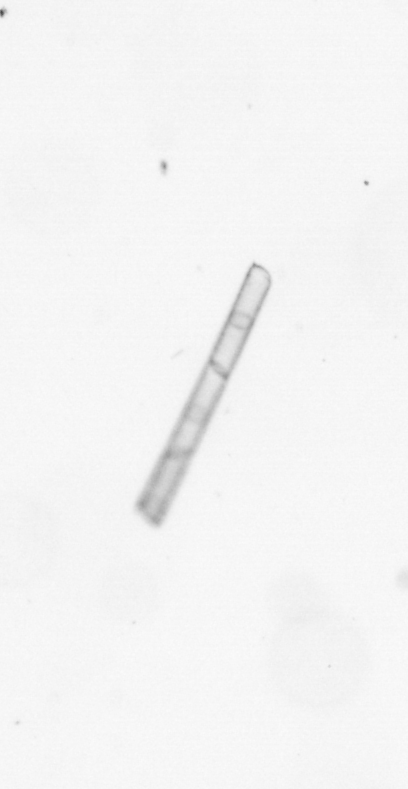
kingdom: Chromista
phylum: Ochrophyta
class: Bacillariophyceae
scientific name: Bacillariophyceae
